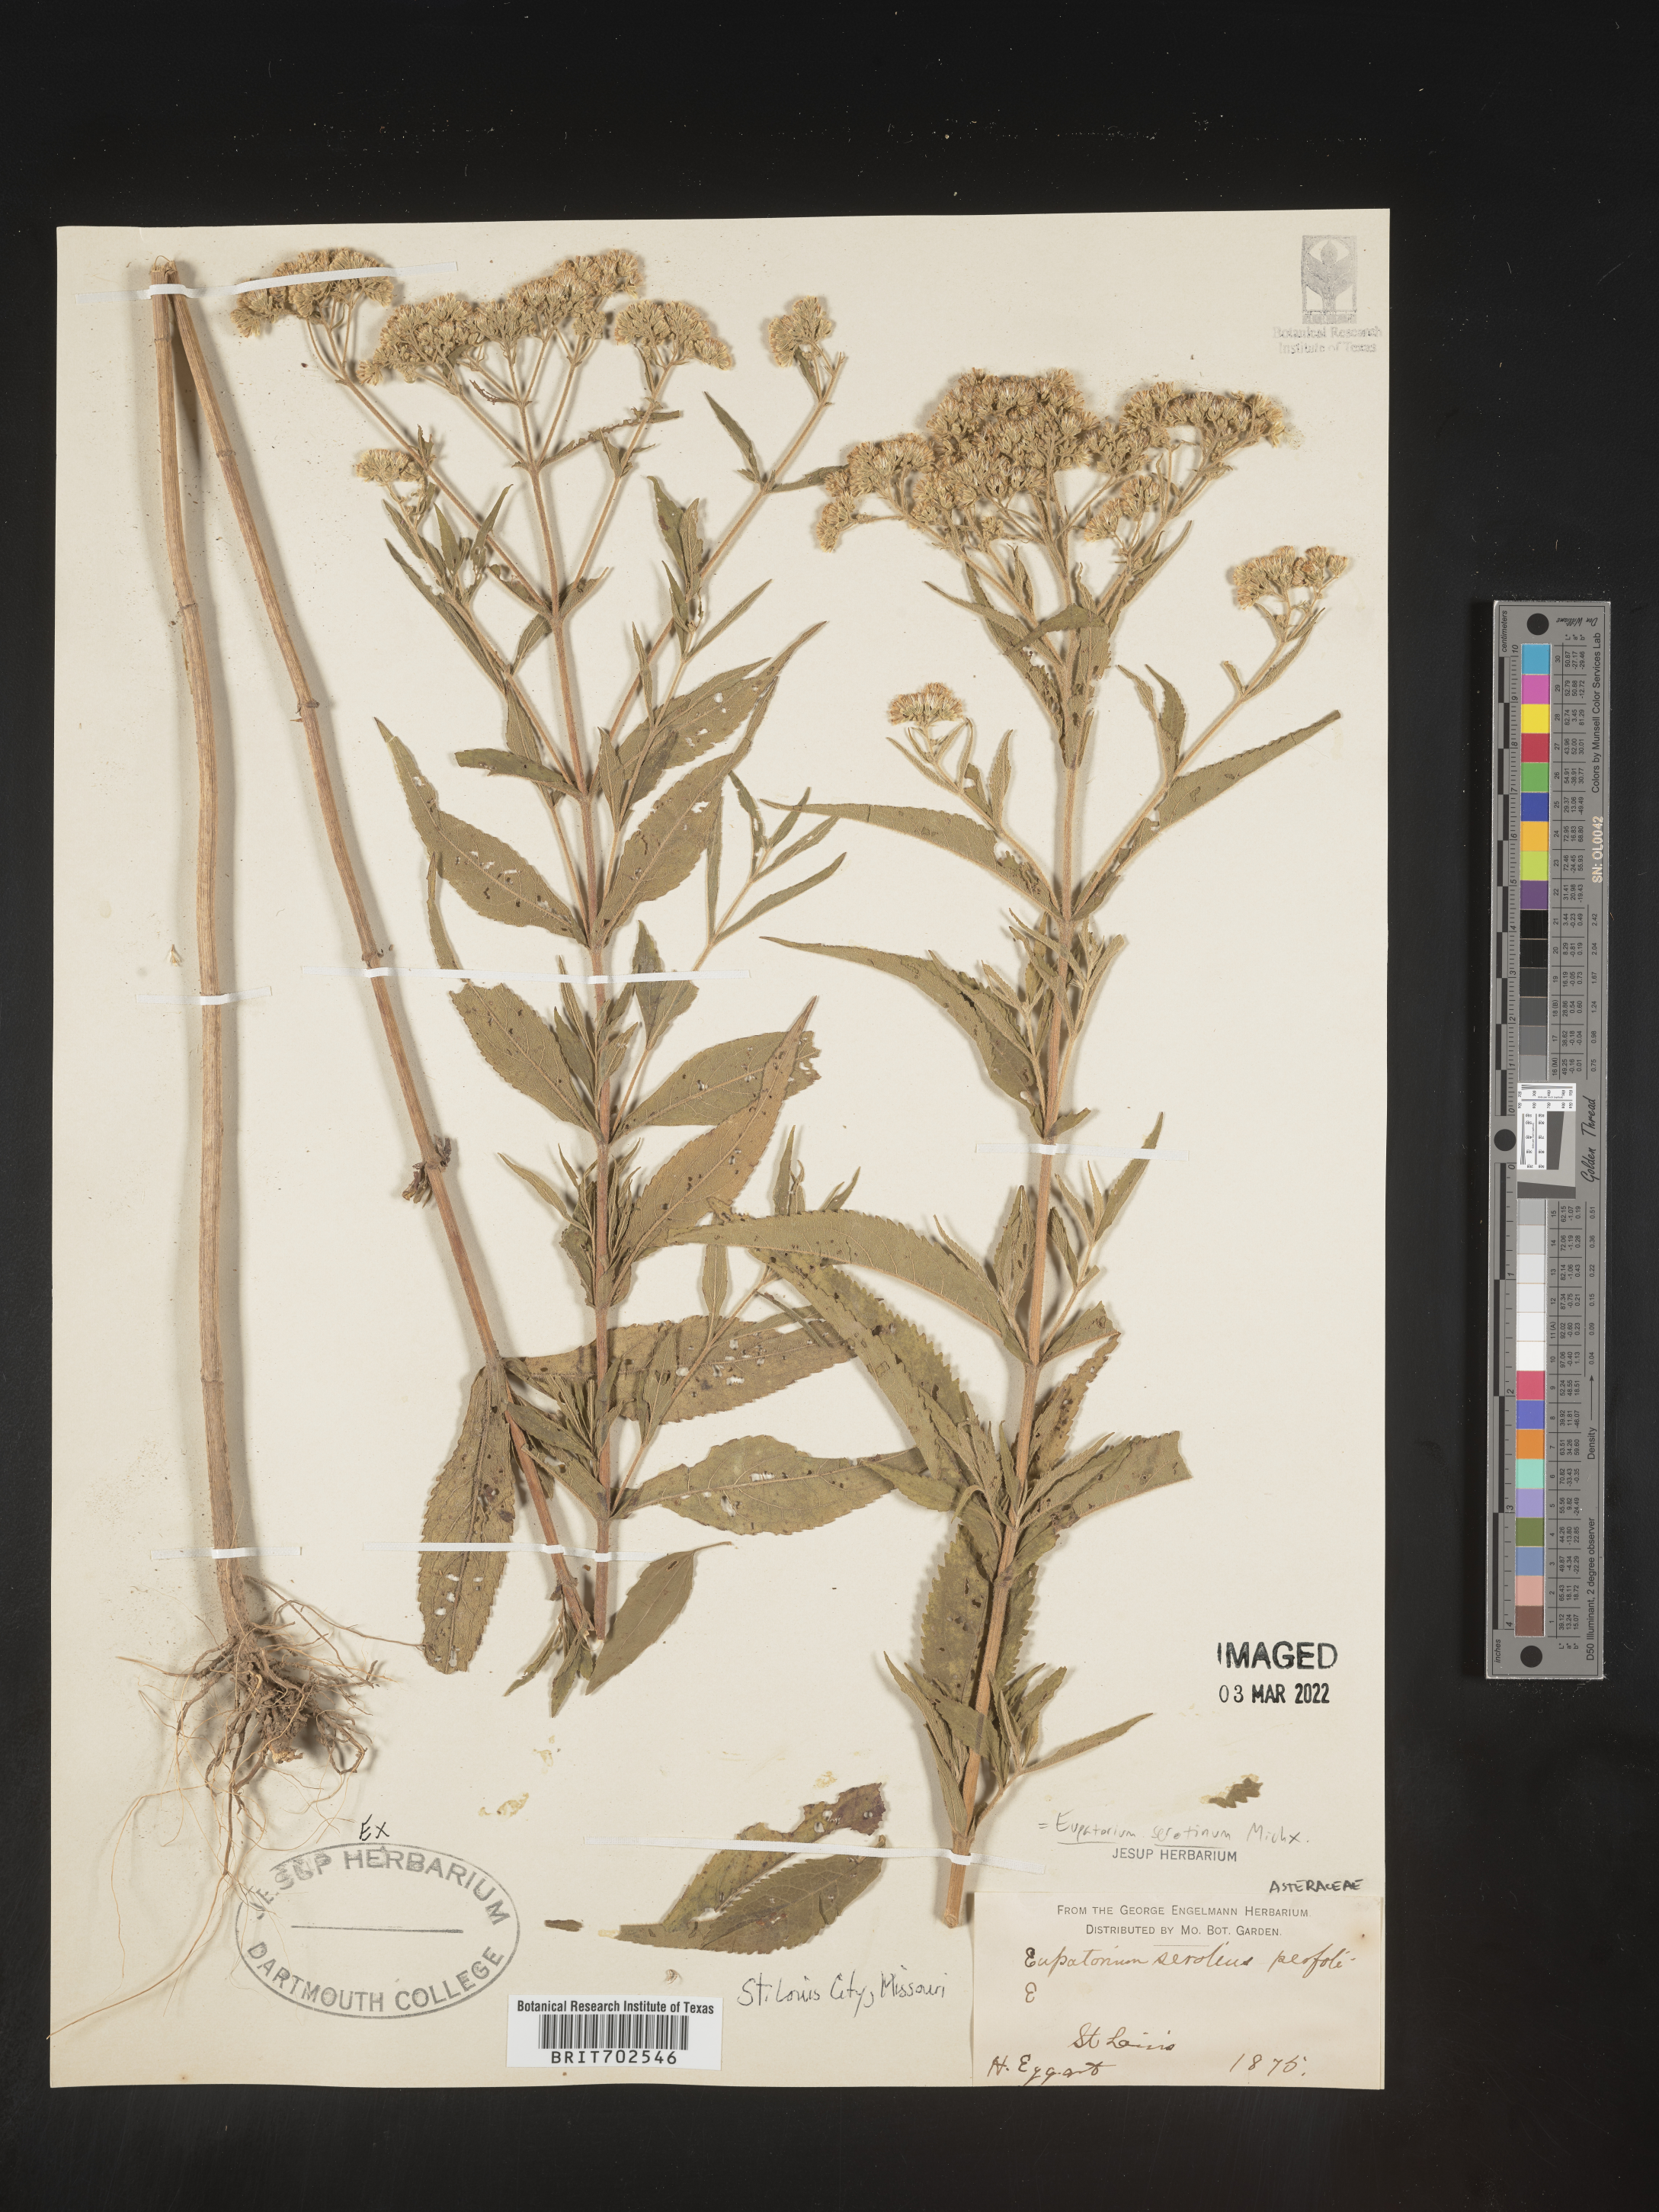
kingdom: Plantae
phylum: Tracheophyta
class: Magnoliopsida
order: Asterales
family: Asteraceae
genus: Eupatorium
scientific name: Eupatorium serotinum
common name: Late boneset
